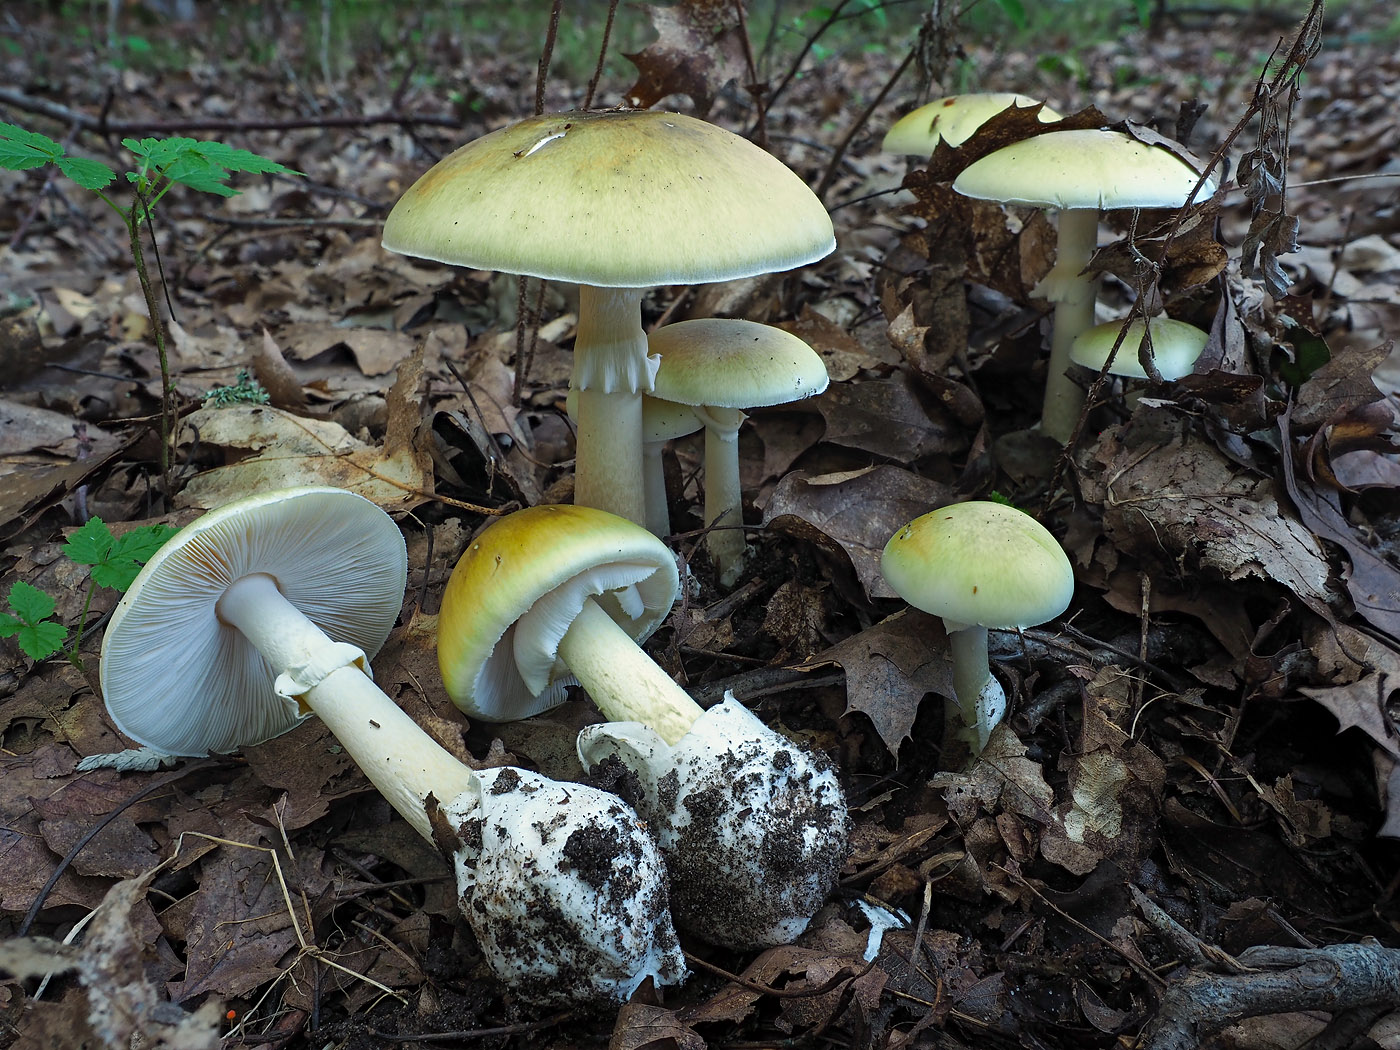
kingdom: Fungi
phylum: Basidiomycota
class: Agaricomycetes
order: Agaricales
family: Amanitaceae
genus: Amanita
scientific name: Amanita phalloides
